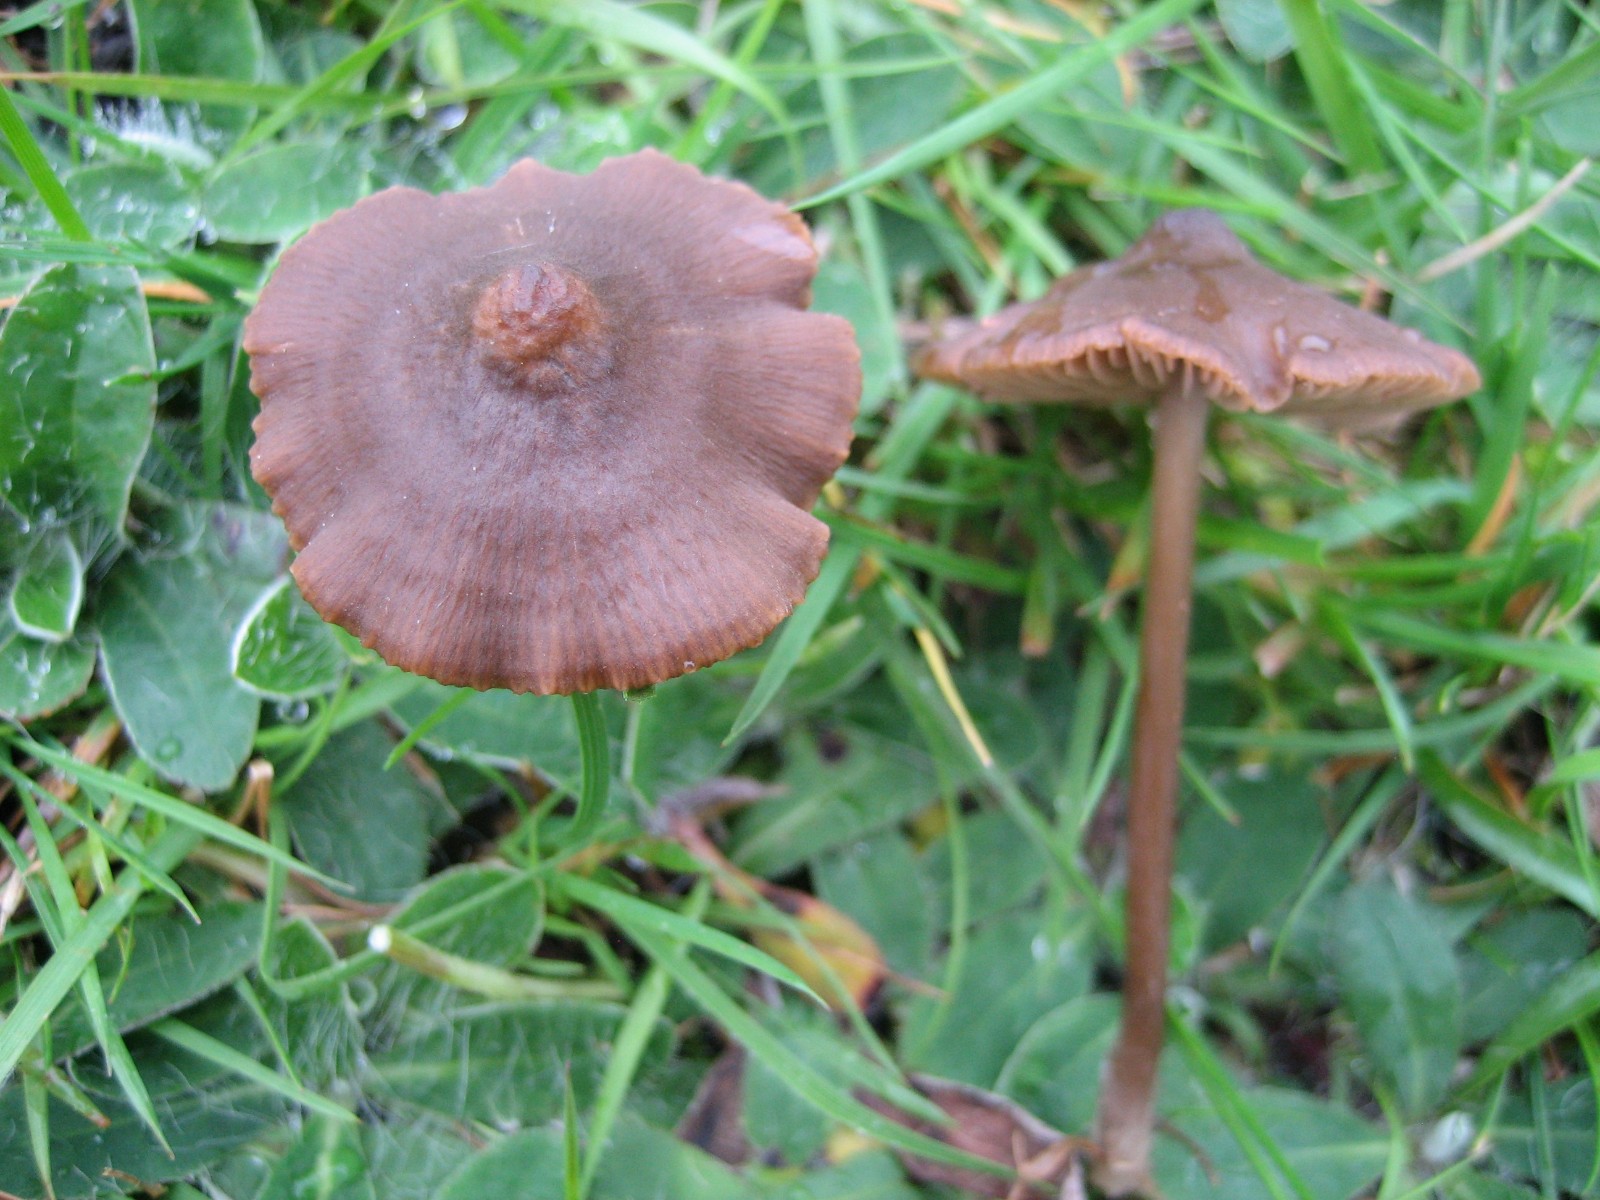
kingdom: Fungi
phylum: Basidiomycota
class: Agaricomycetes
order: Agaricales
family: Entolomataceae
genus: Entoloma
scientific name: Entoloma clandestinum
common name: tykbladet rødblad
